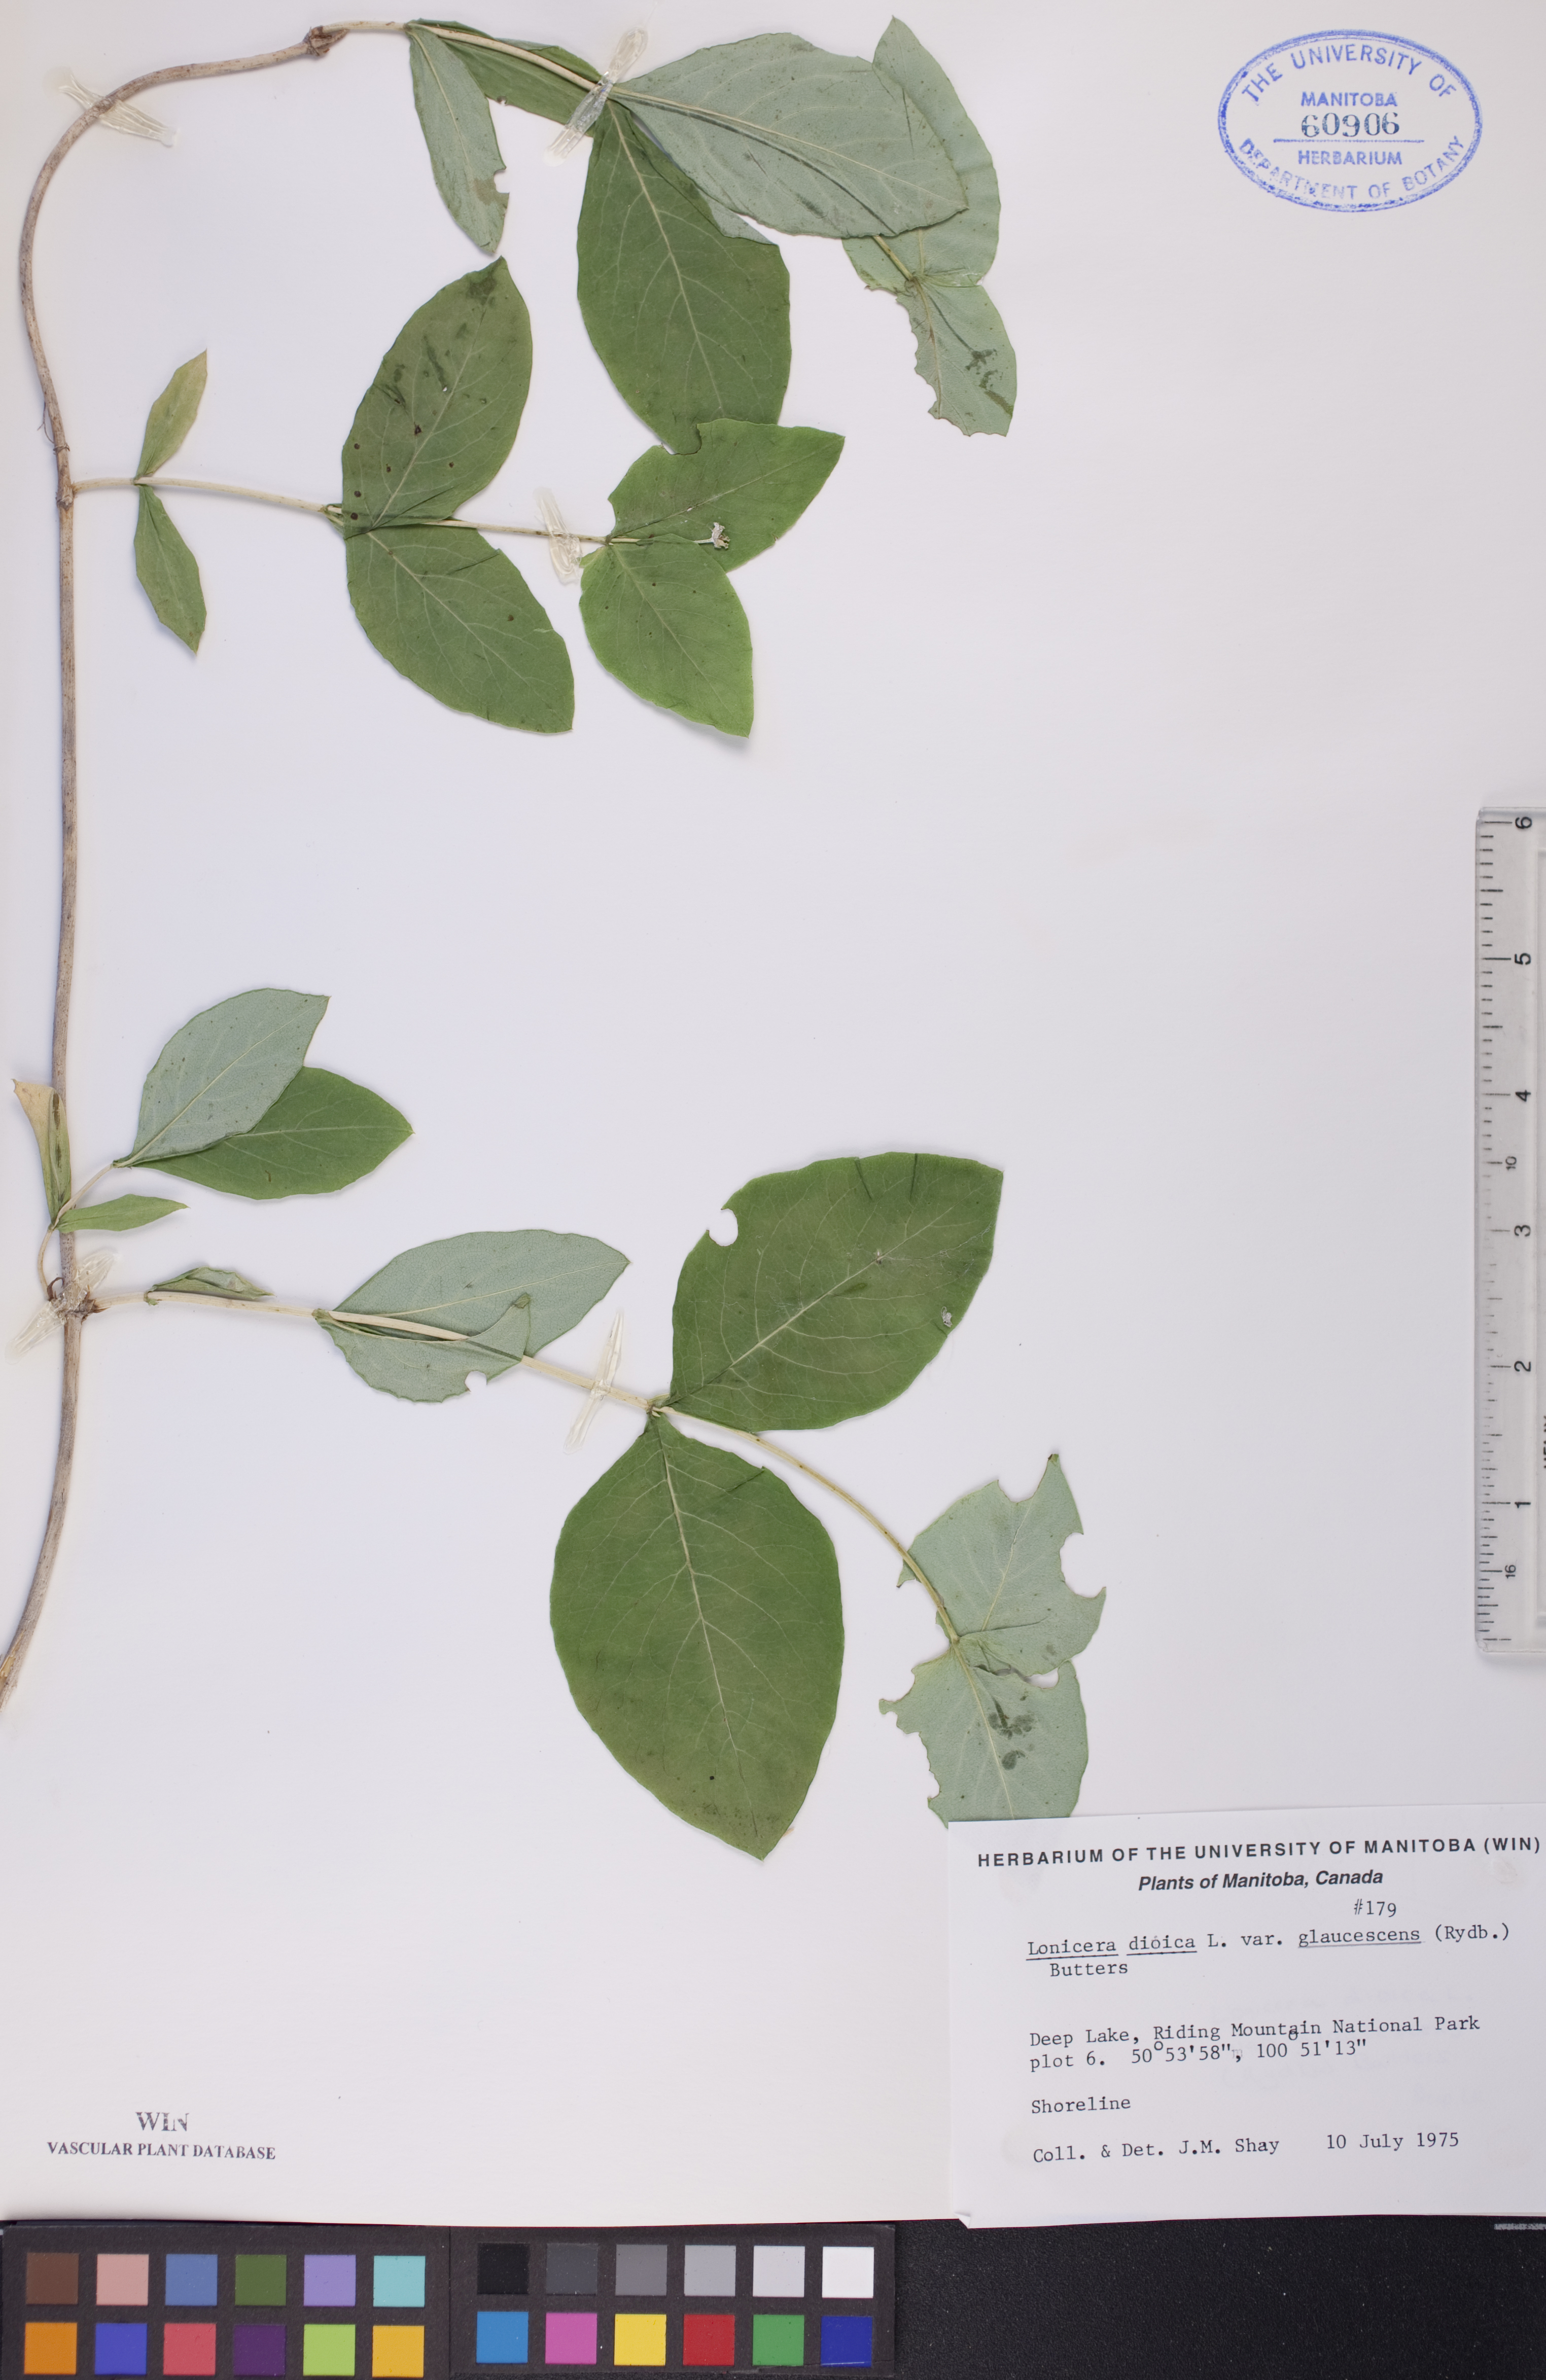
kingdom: Plantae
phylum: Tracheophyta
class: Magnoliopsida
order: Dipsacales
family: Caprifoliaceae
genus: Lonicera
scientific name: Lonicera dioica
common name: Limber honeysuckle
